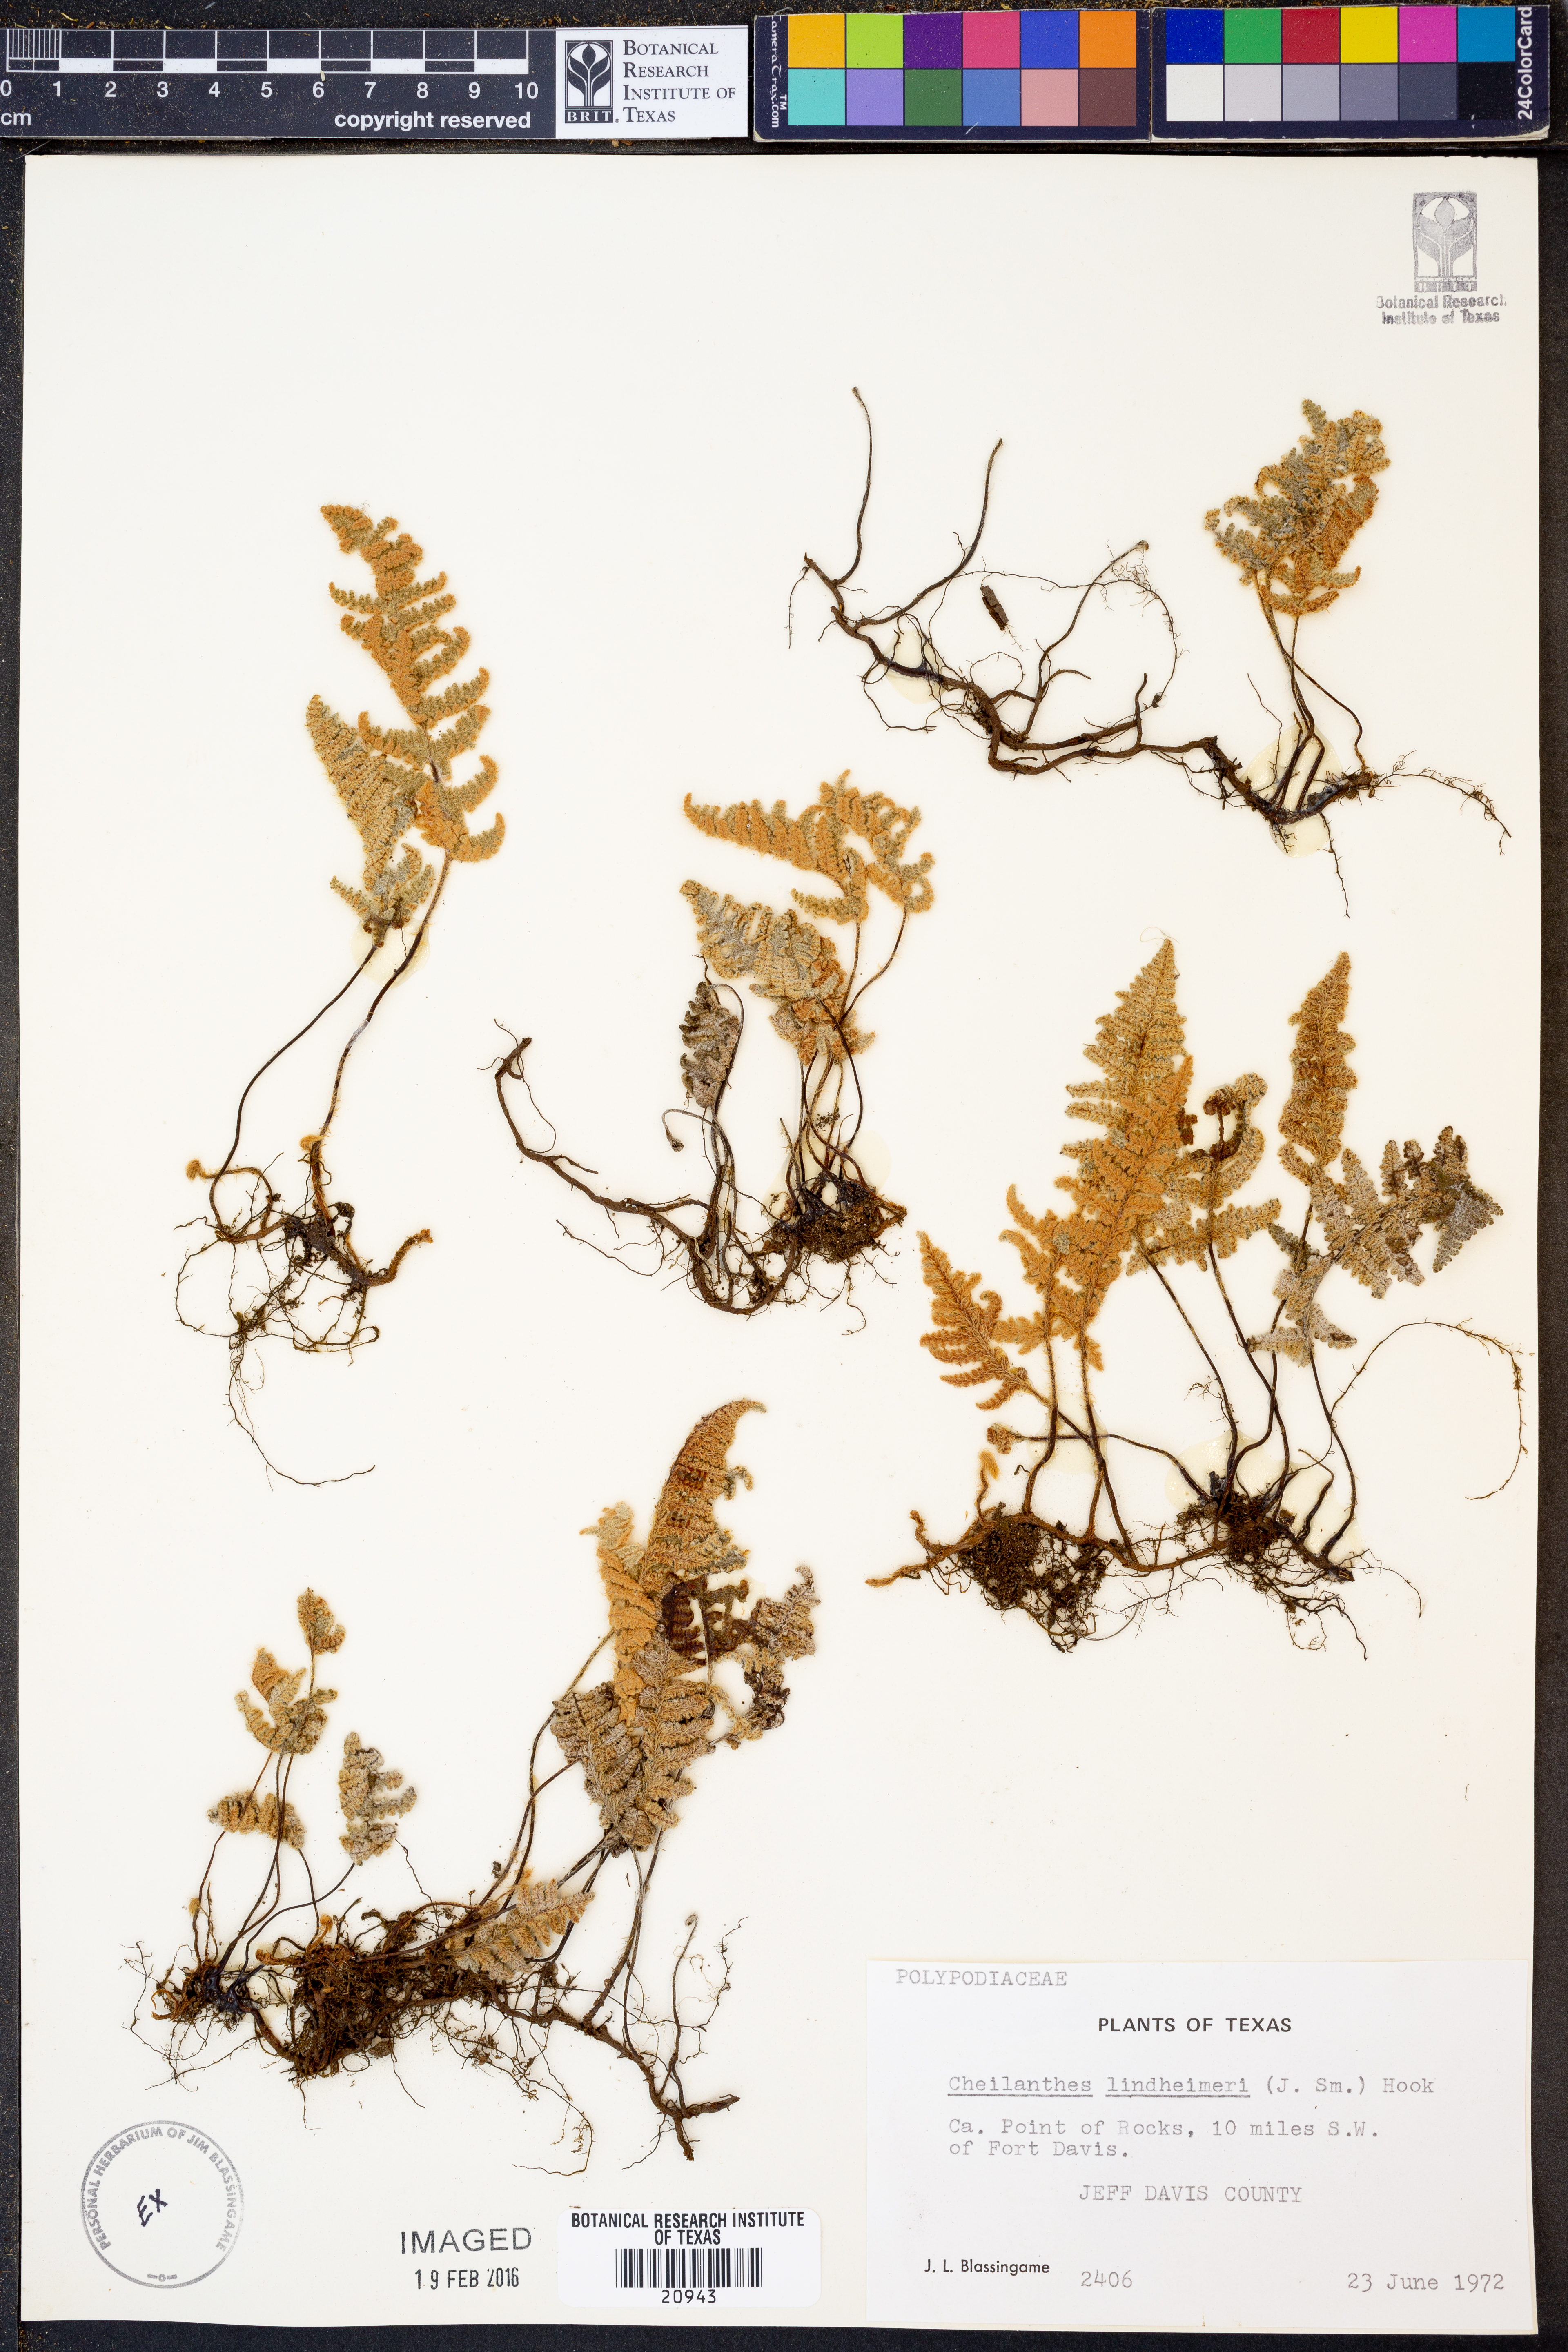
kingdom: Plantae
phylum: Tracheophyta
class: Polypodiopsida
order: Polypodiales
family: Pteridaceae
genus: Myriopteris
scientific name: Myriopteris lindheimeri
